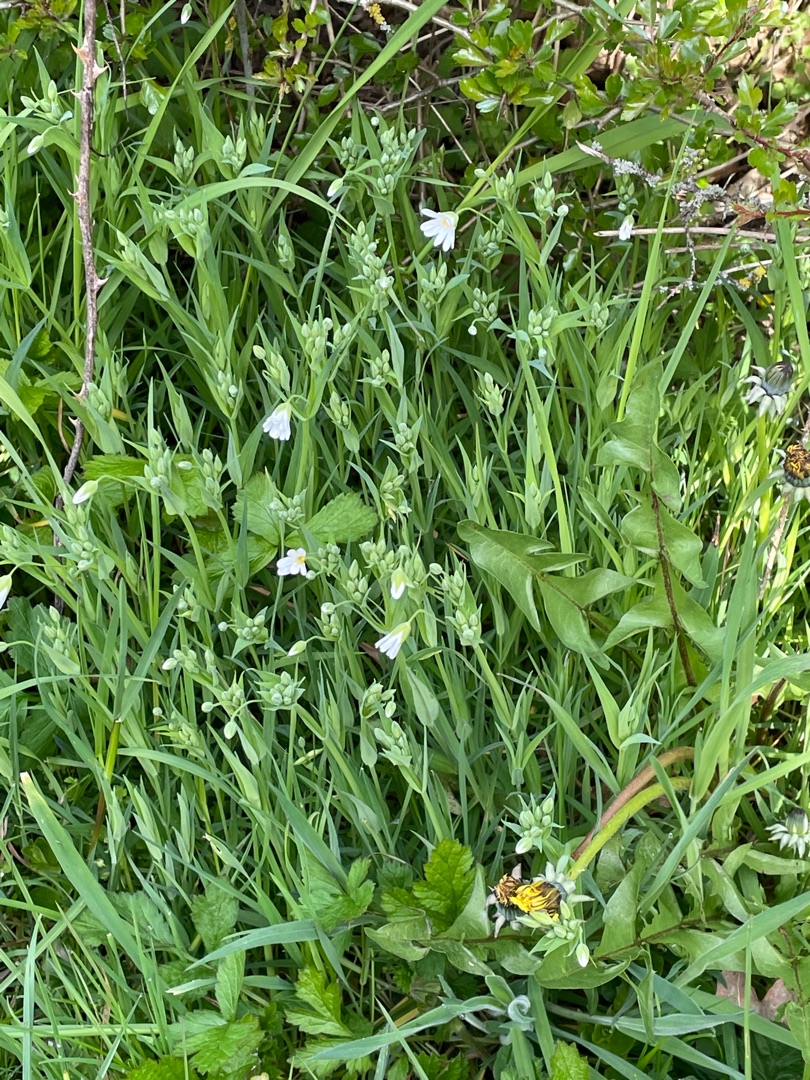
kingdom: Plantae
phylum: Tracheophyta
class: Magnoliopsida
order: Caryophyllales
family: Caryophyllaceae
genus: Rabelera
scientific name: Rabelera holostea
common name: Stor fladstjerne
